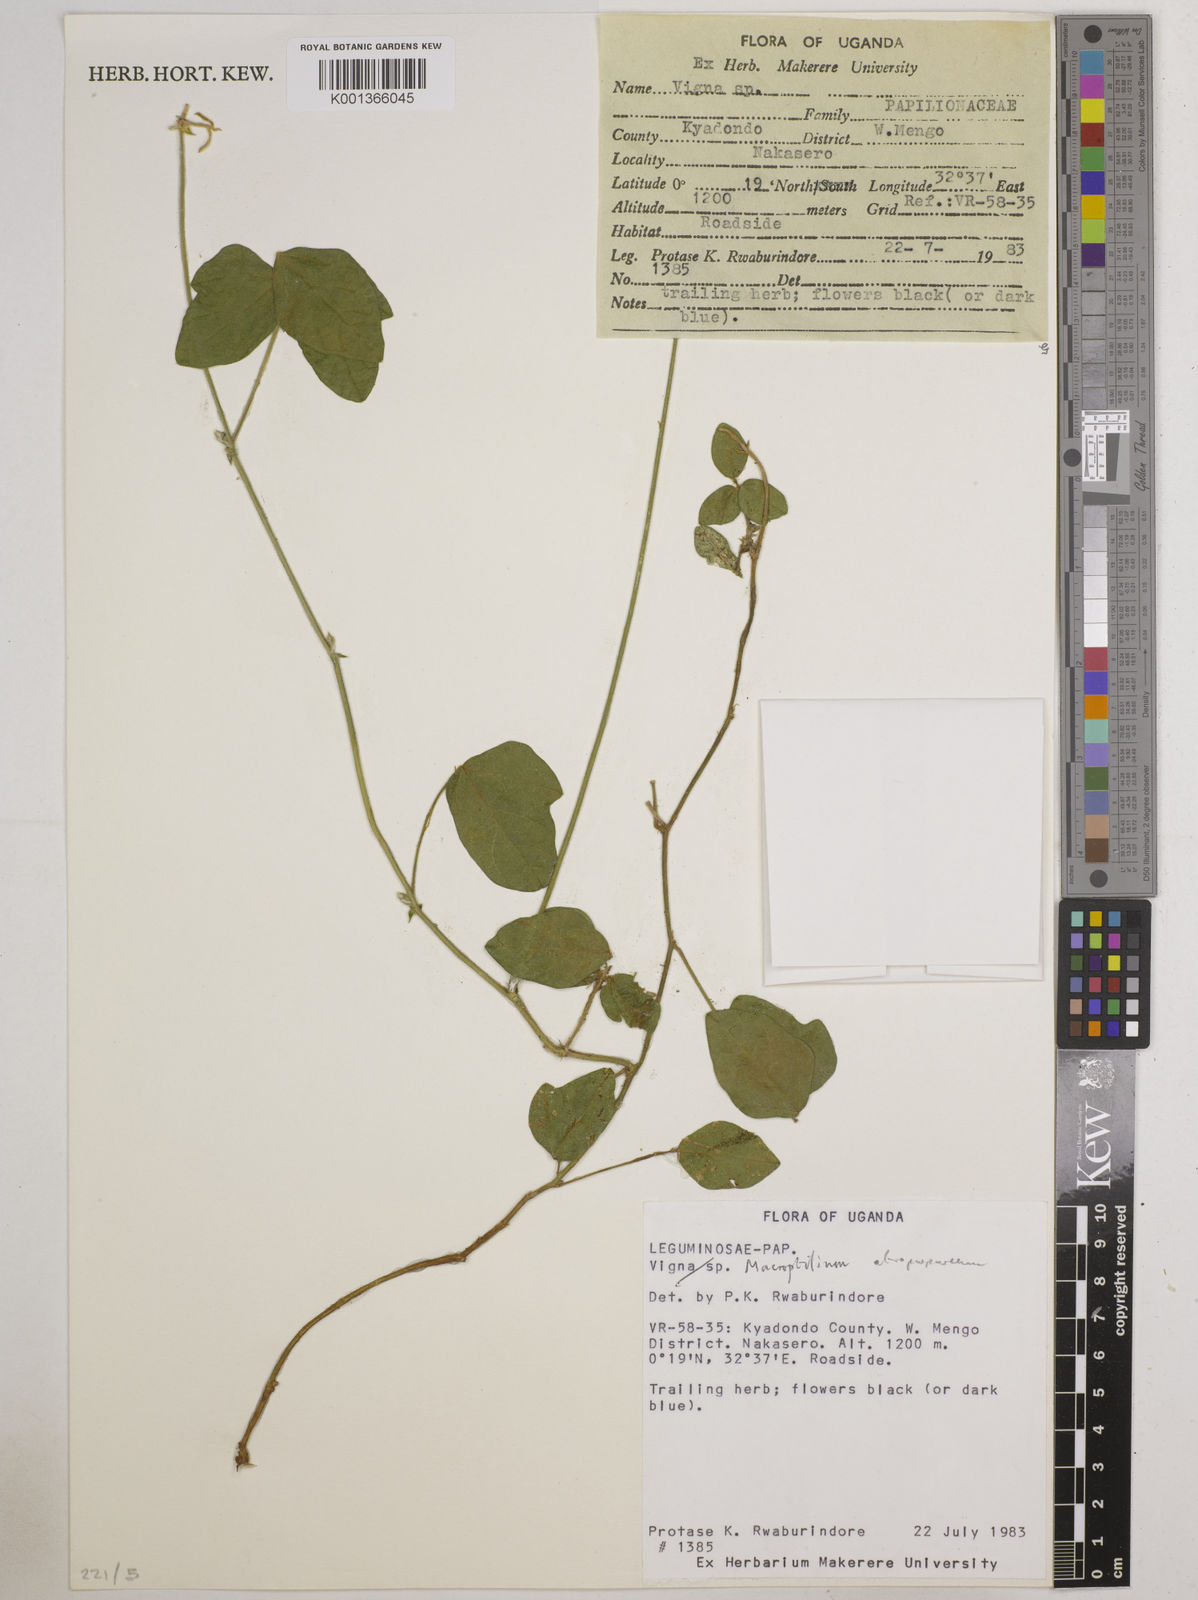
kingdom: Plantae
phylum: Tracheophyta
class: Magnoliopsida
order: Fabales
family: Fabaceae
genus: Macroptilium
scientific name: Macroptilium atropurpureum
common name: Purple bushbean
